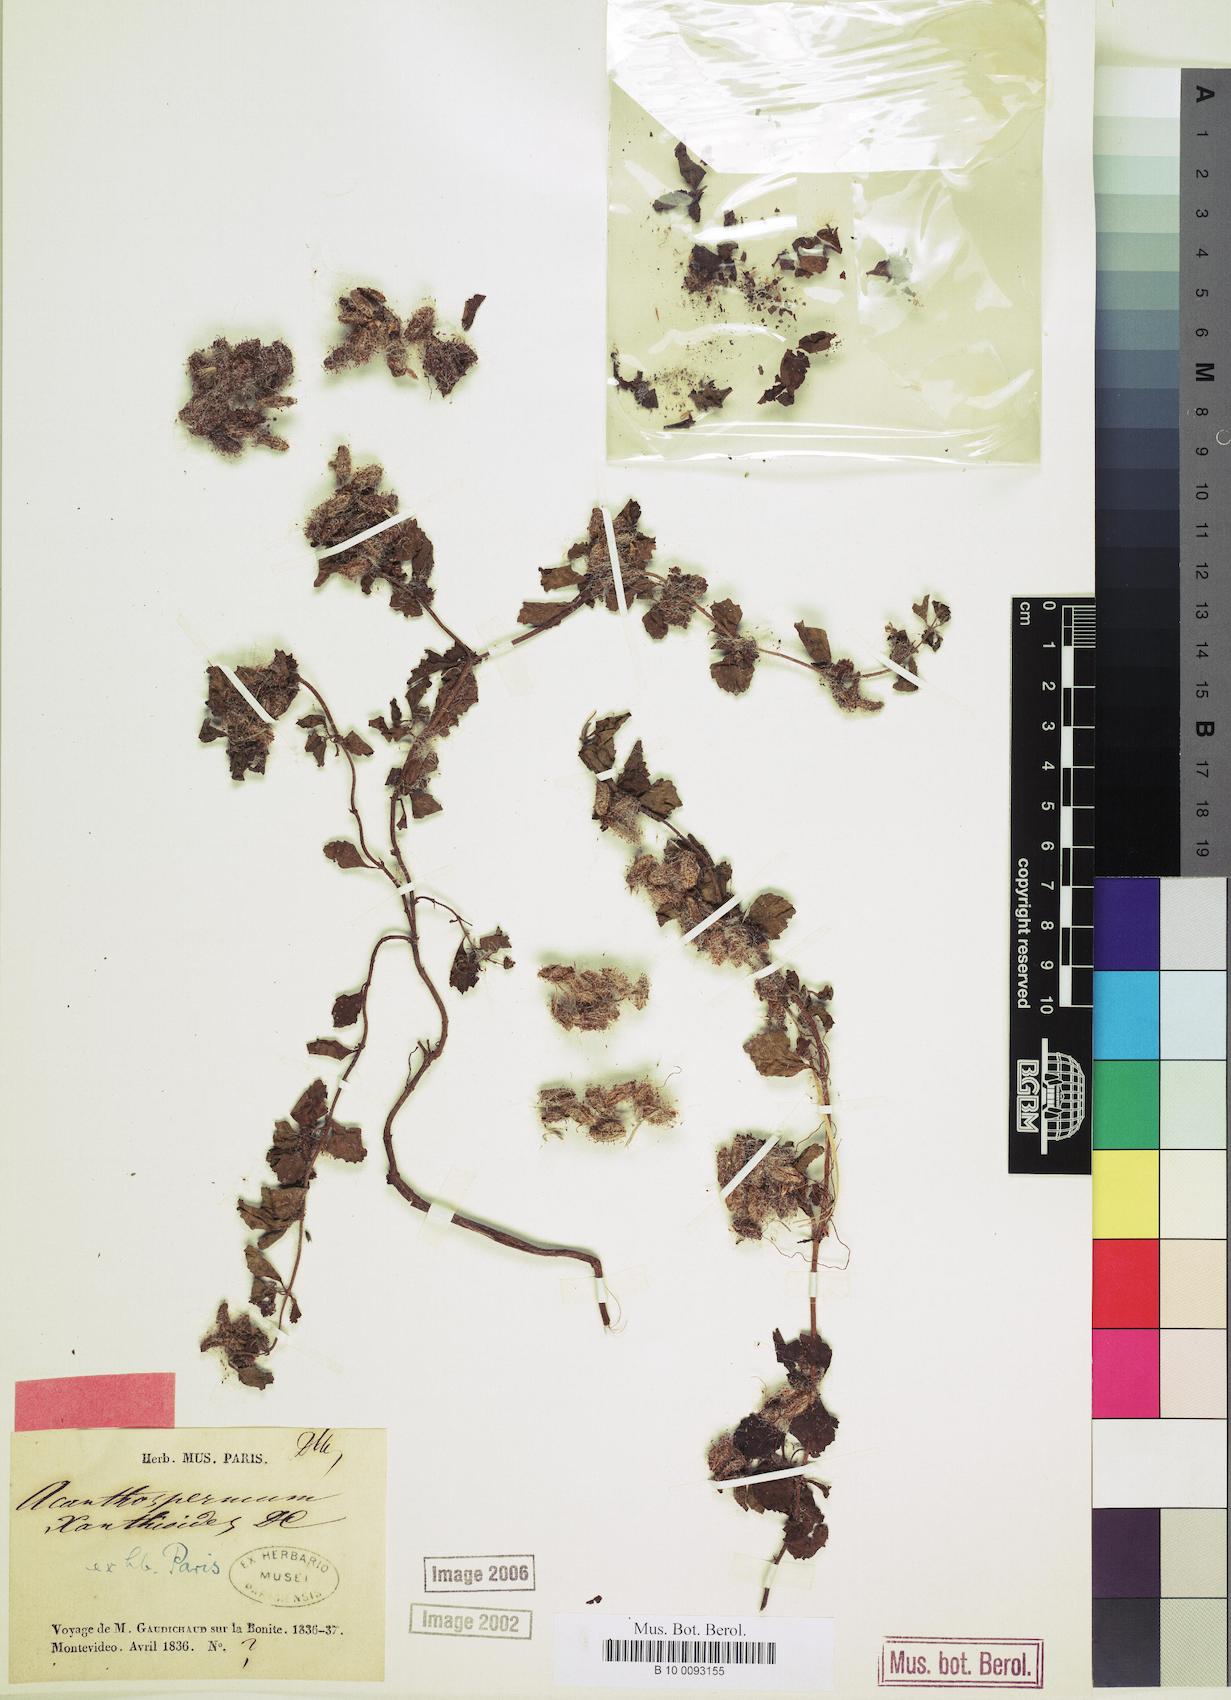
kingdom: Plantae
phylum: Tracheophyta
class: Magnoliopsida
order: Asterales
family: Asteraceae
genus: Acanthospermum
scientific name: Acanthospermum glabratum
